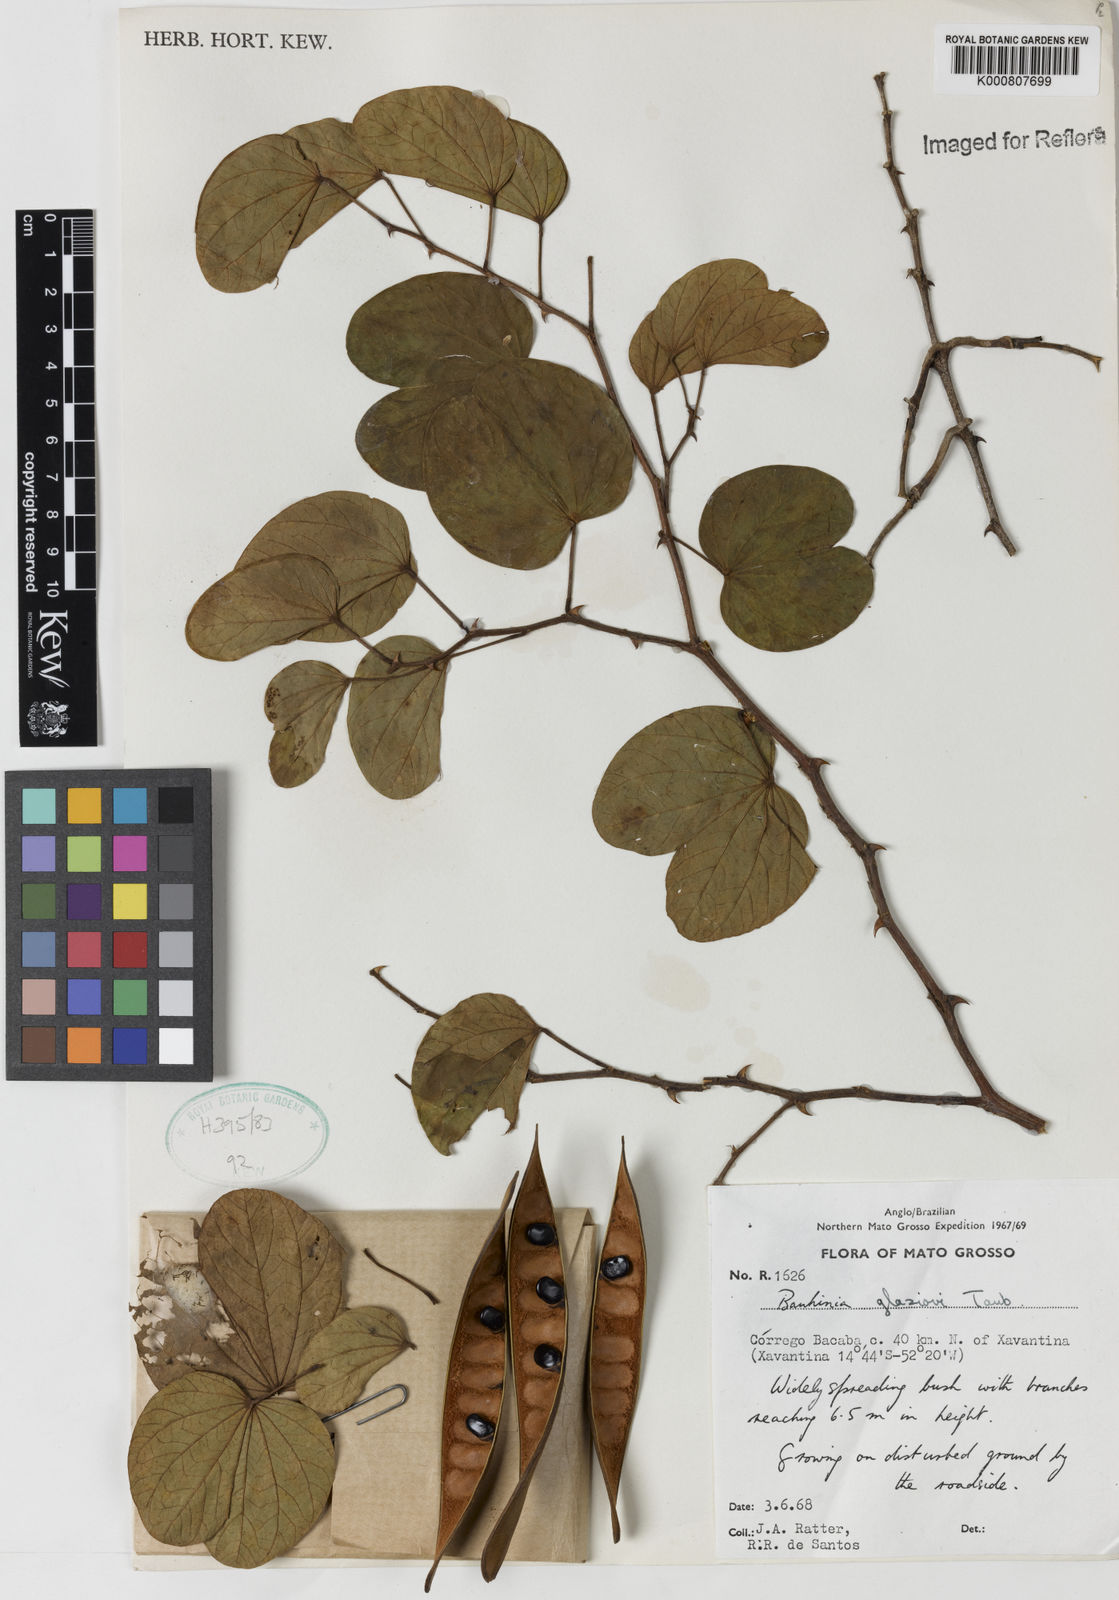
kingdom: Plantae
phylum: Tracheophyta
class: Magnoliopsida
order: Fabales
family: Fabaceae
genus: Bauhinia
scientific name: Bauhinia glaziovii
